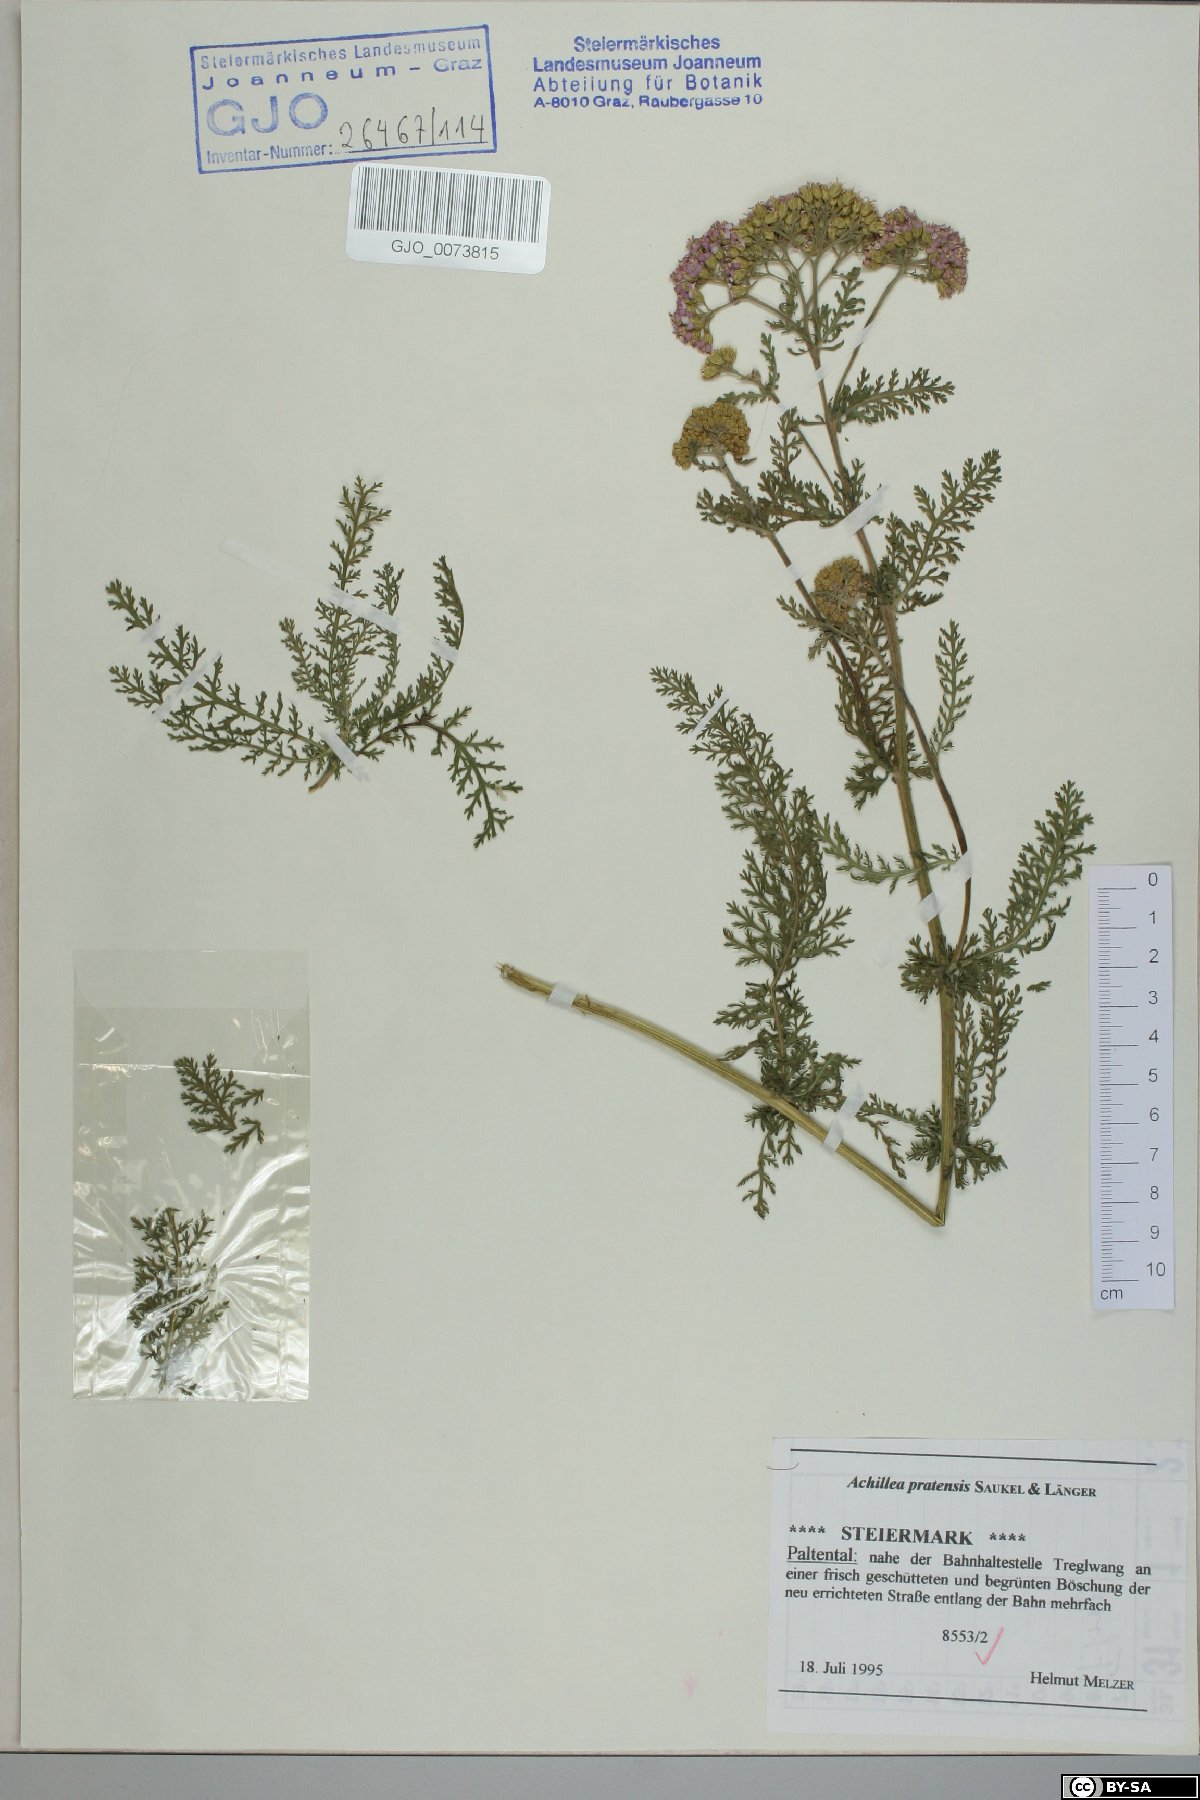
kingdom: Plantae
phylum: Tracheophyta
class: Magnoliopsida
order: Asterales
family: Asteraceae
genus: Achillea
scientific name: Achillea pratensis
